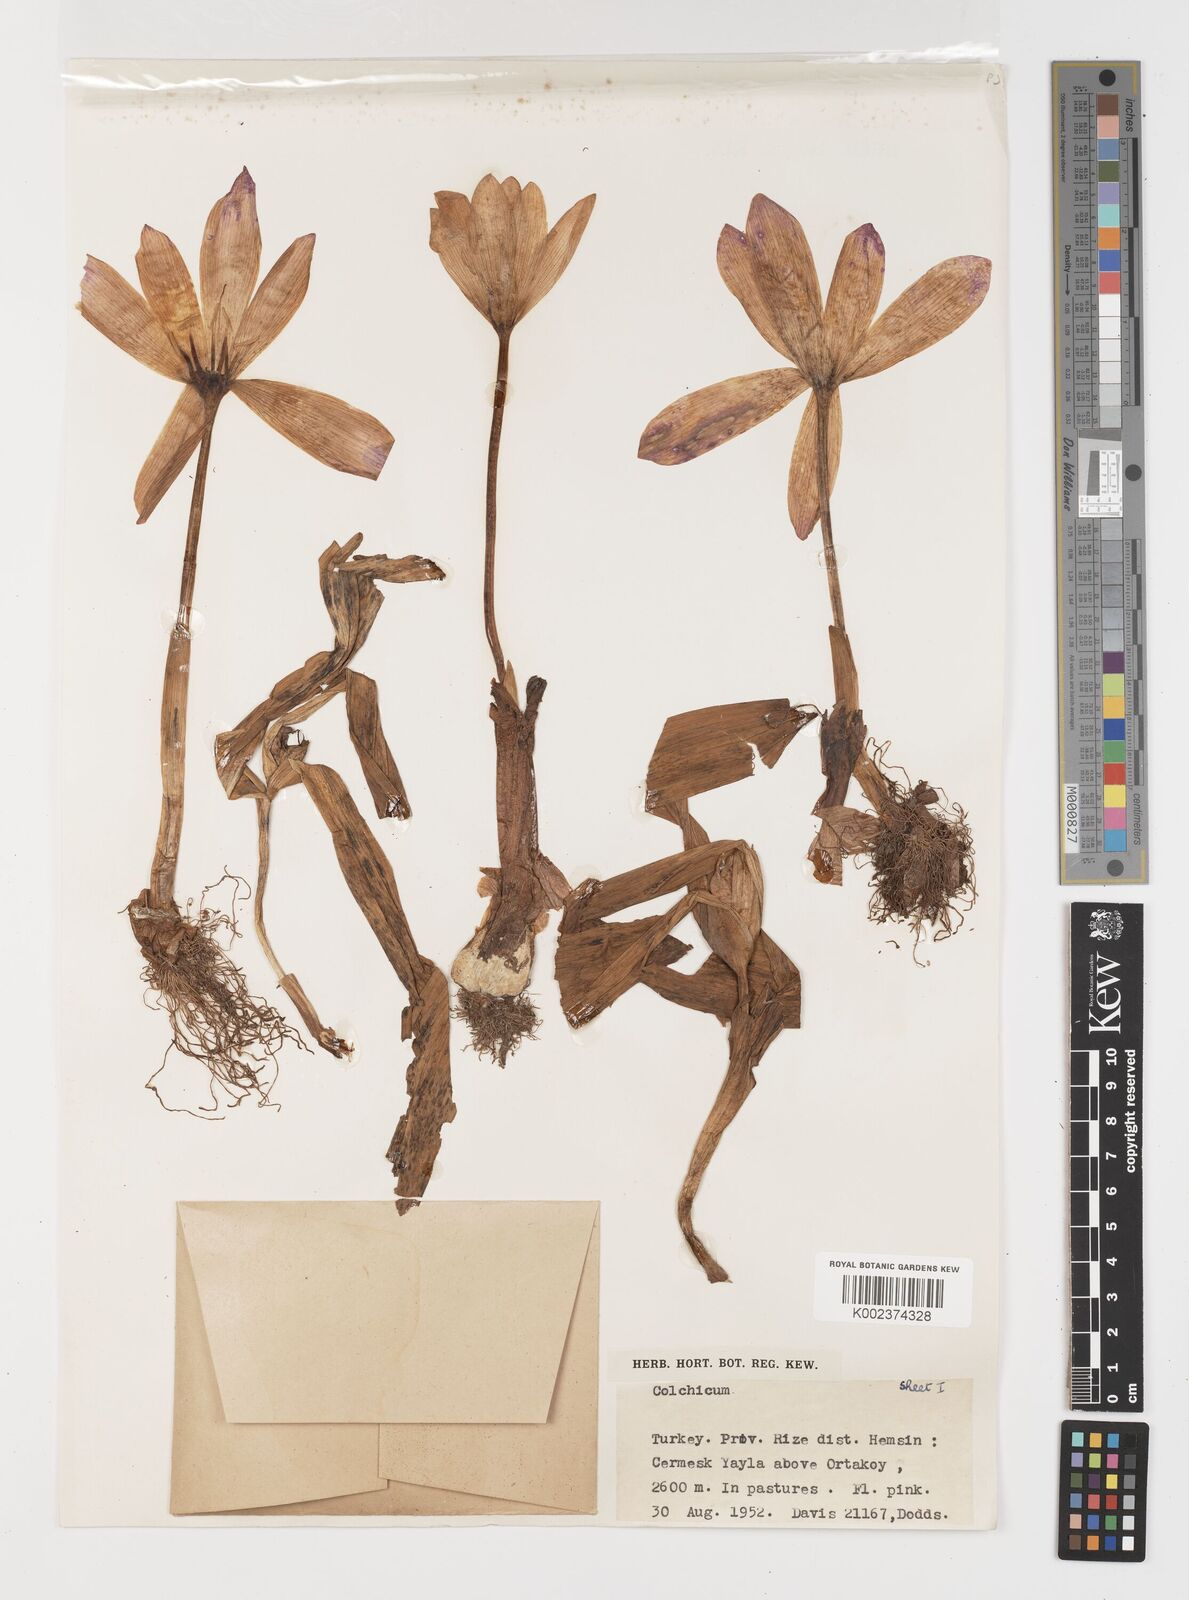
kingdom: Plantae
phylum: Tracheophyta
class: Liliopsida
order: Liliales
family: Colchicaceae
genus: Colchicum
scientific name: Colchicum
